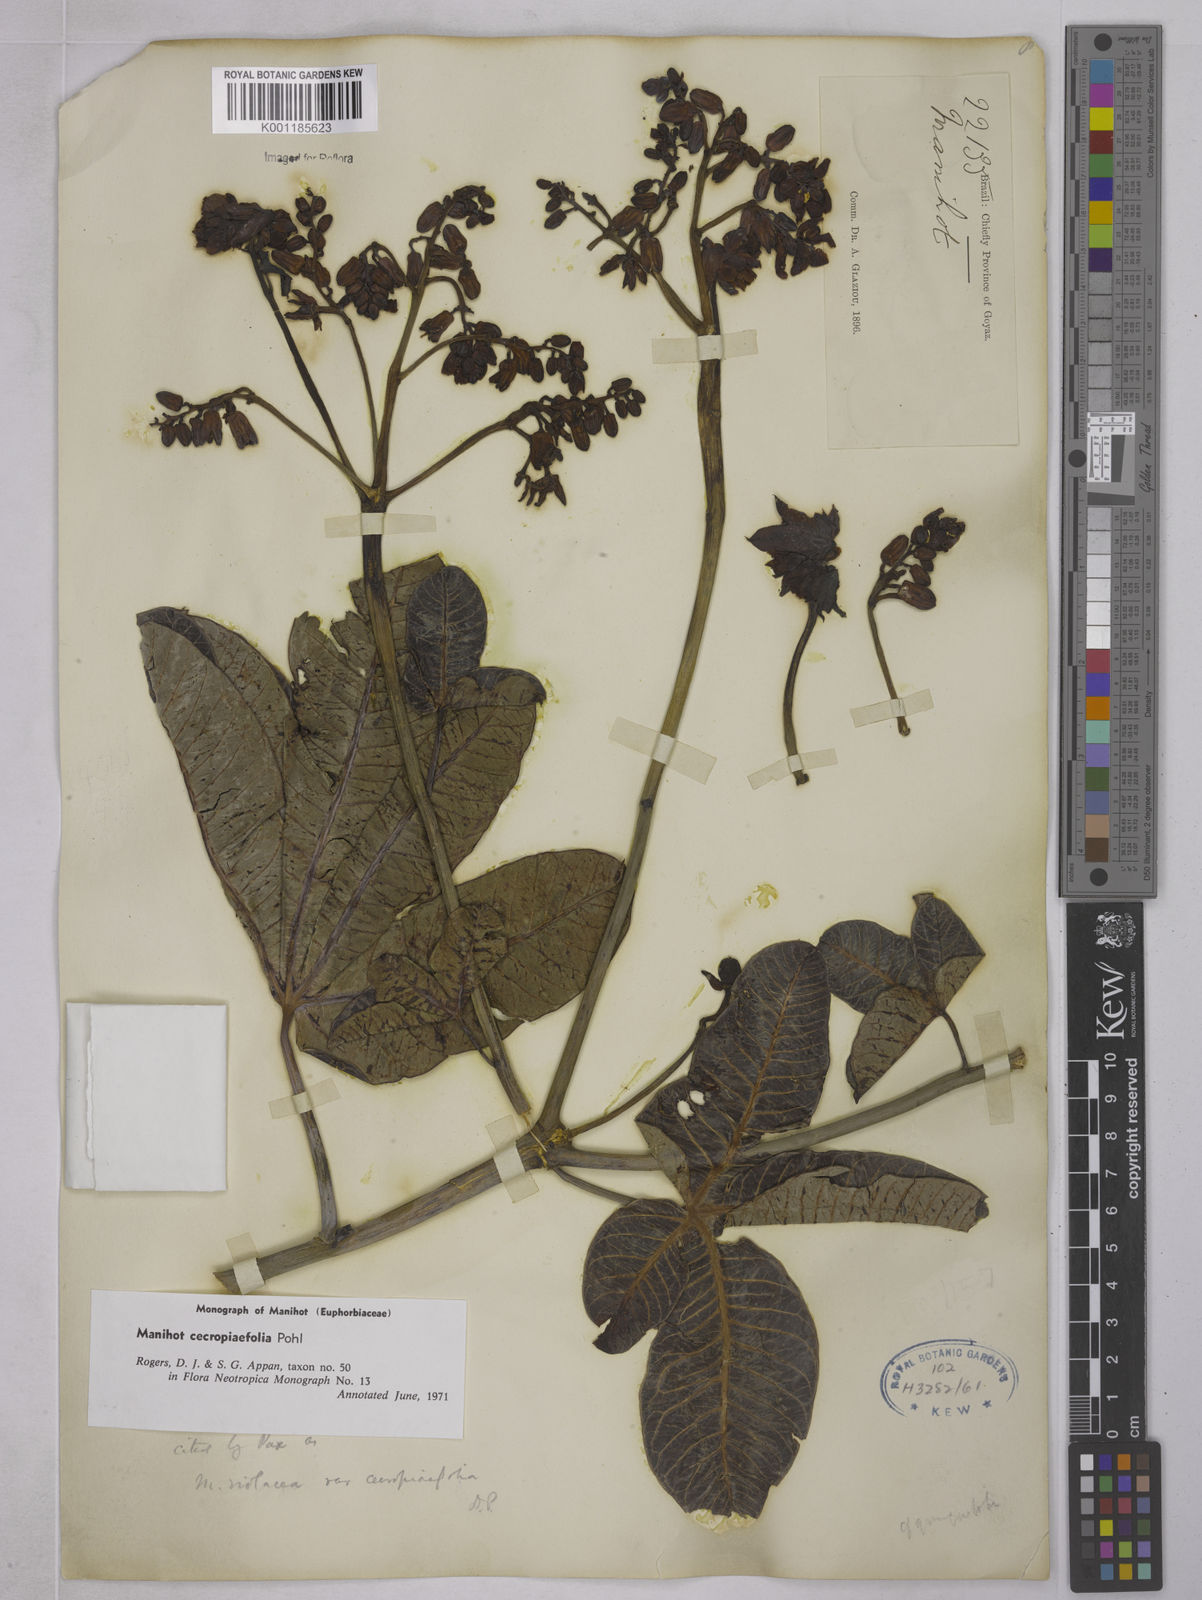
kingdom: Plantae
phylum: Tracheophyta
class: Magnoliopsida
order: Malpighiales
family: Euphorbiaceae
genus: Manihot
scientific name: Manihot cecropiifolia
